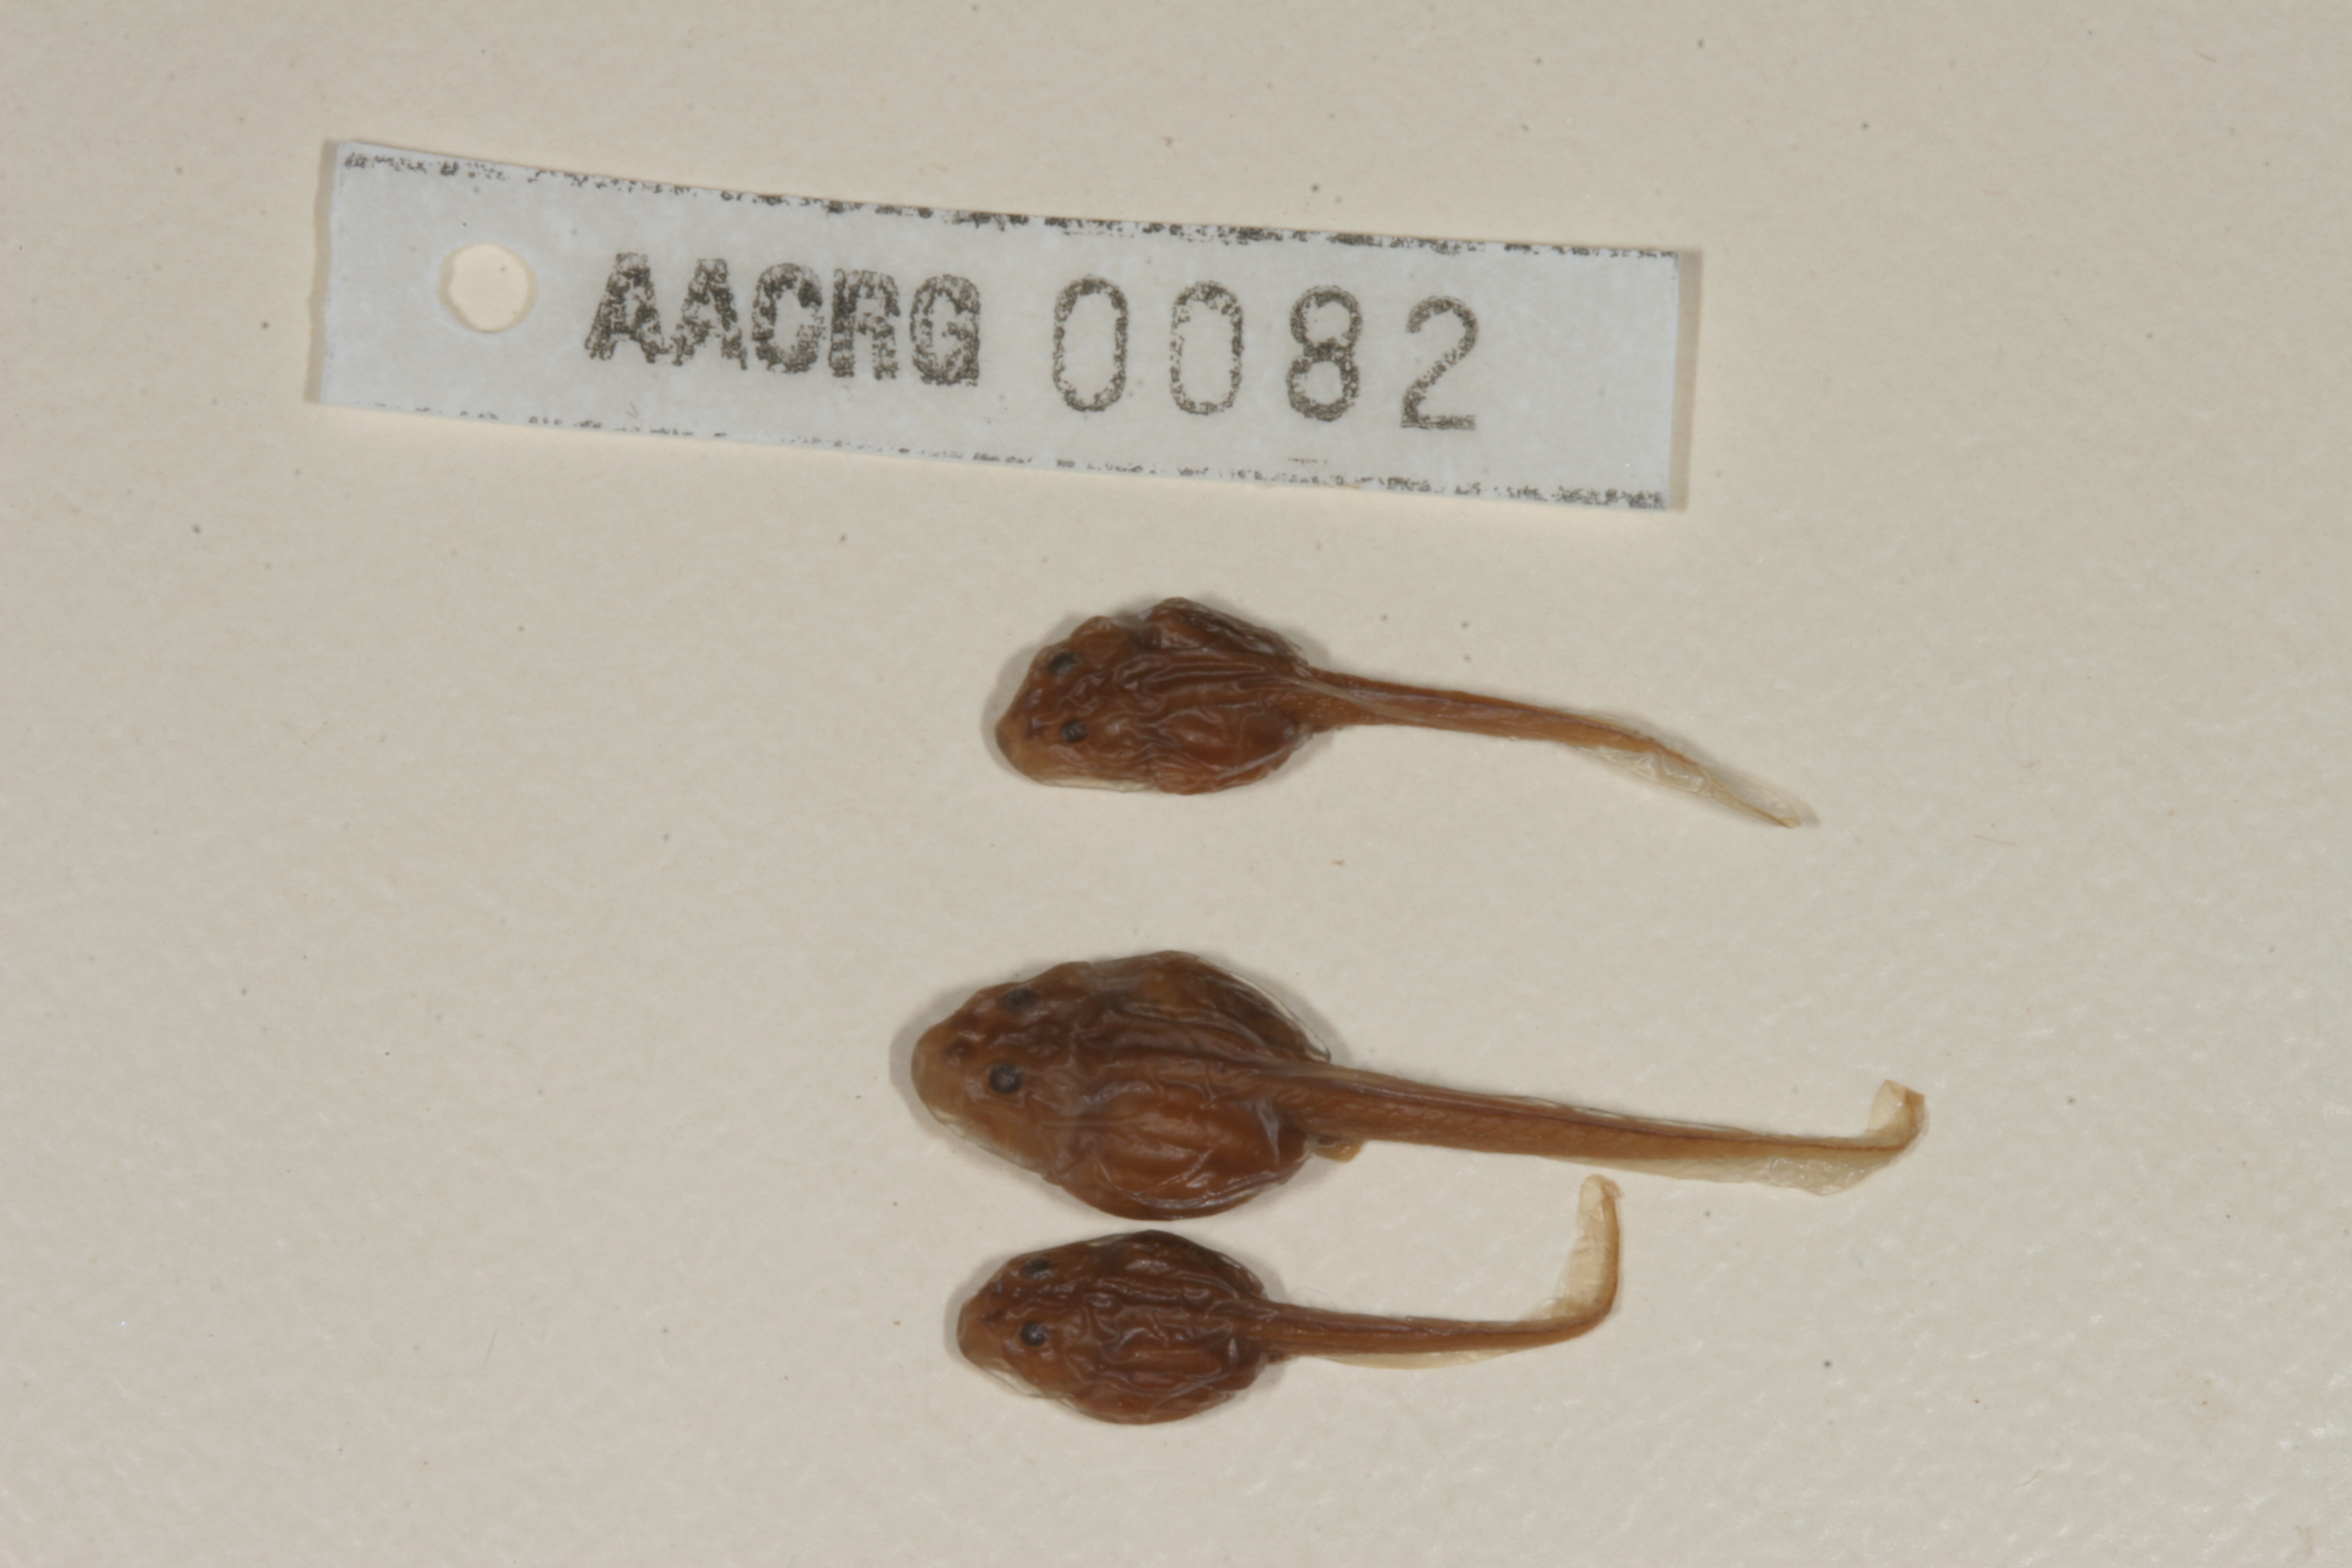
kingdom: Animalia
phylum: Chordata
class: Amphibia
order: Anura
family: Bufonidae
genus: Vandijkophrynus
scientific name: Vandijkophrynus robinsoni
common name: Paradise toad
